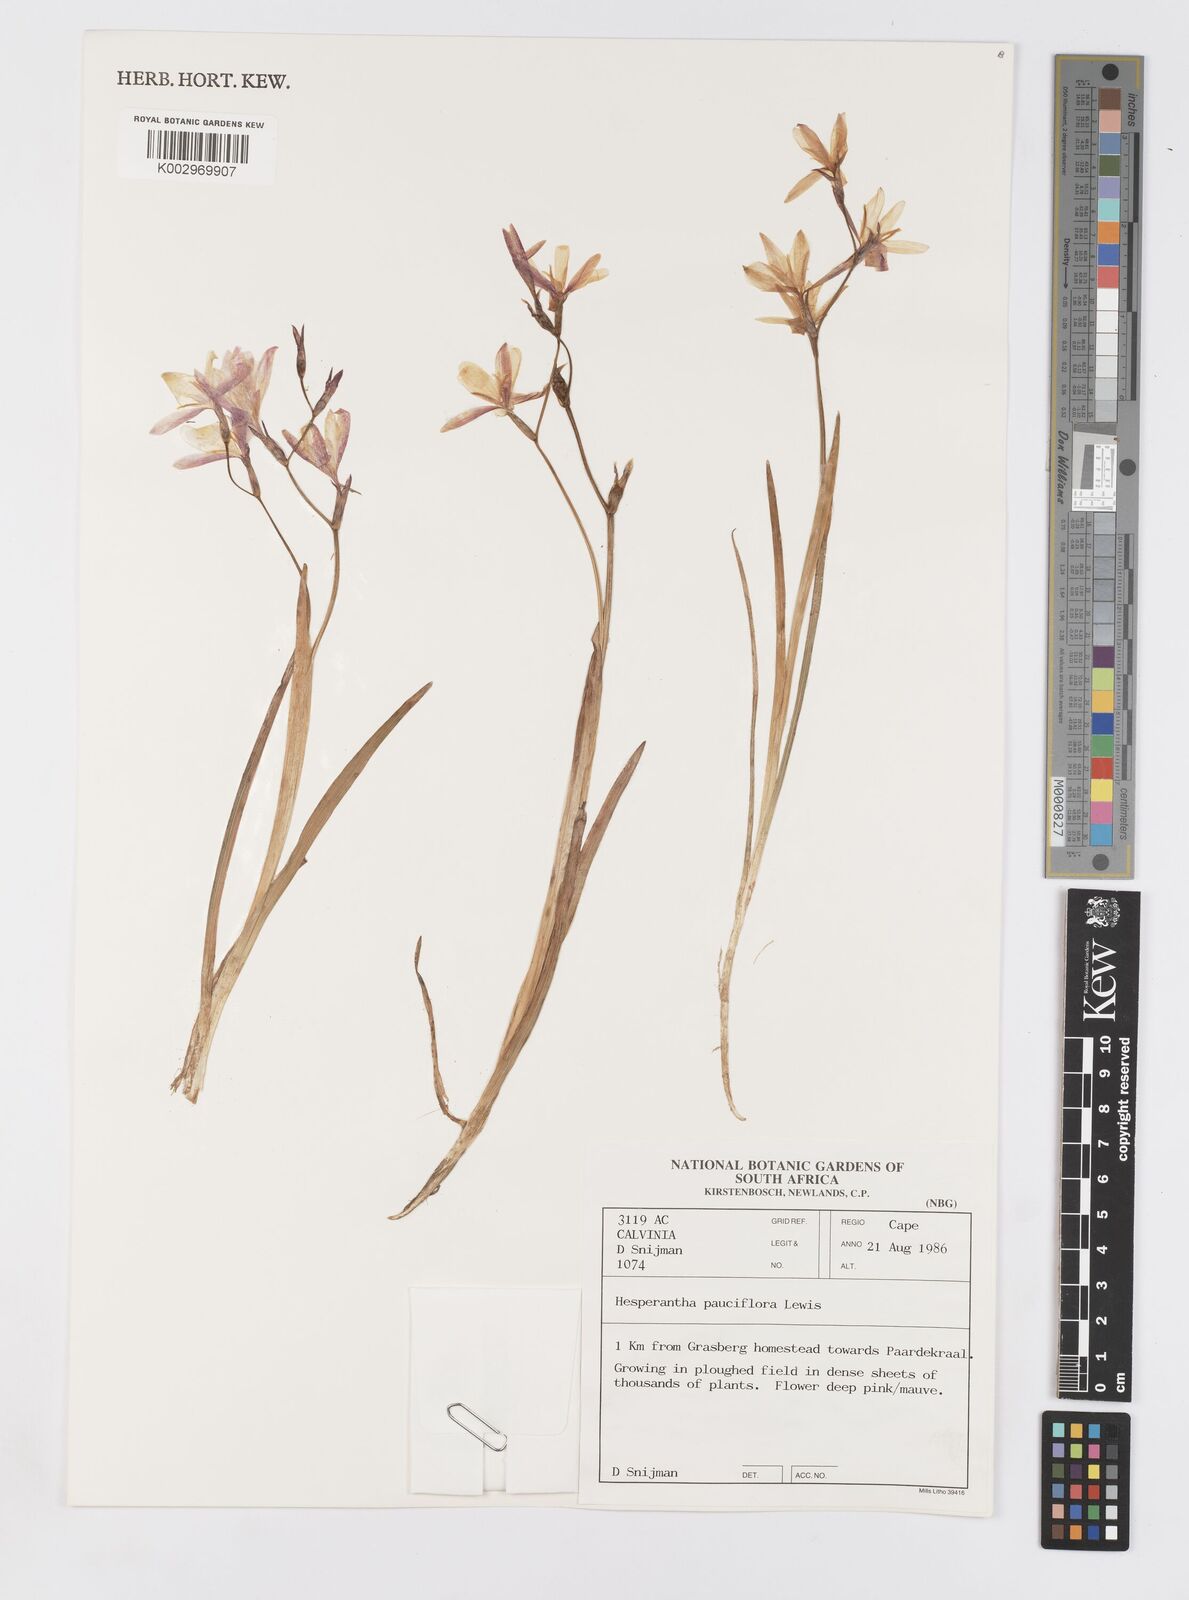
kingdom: Plantae
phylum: Tracheophyta
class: Liliopsida
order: Asparagales
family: Iridaceae
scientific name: Iridaceae
